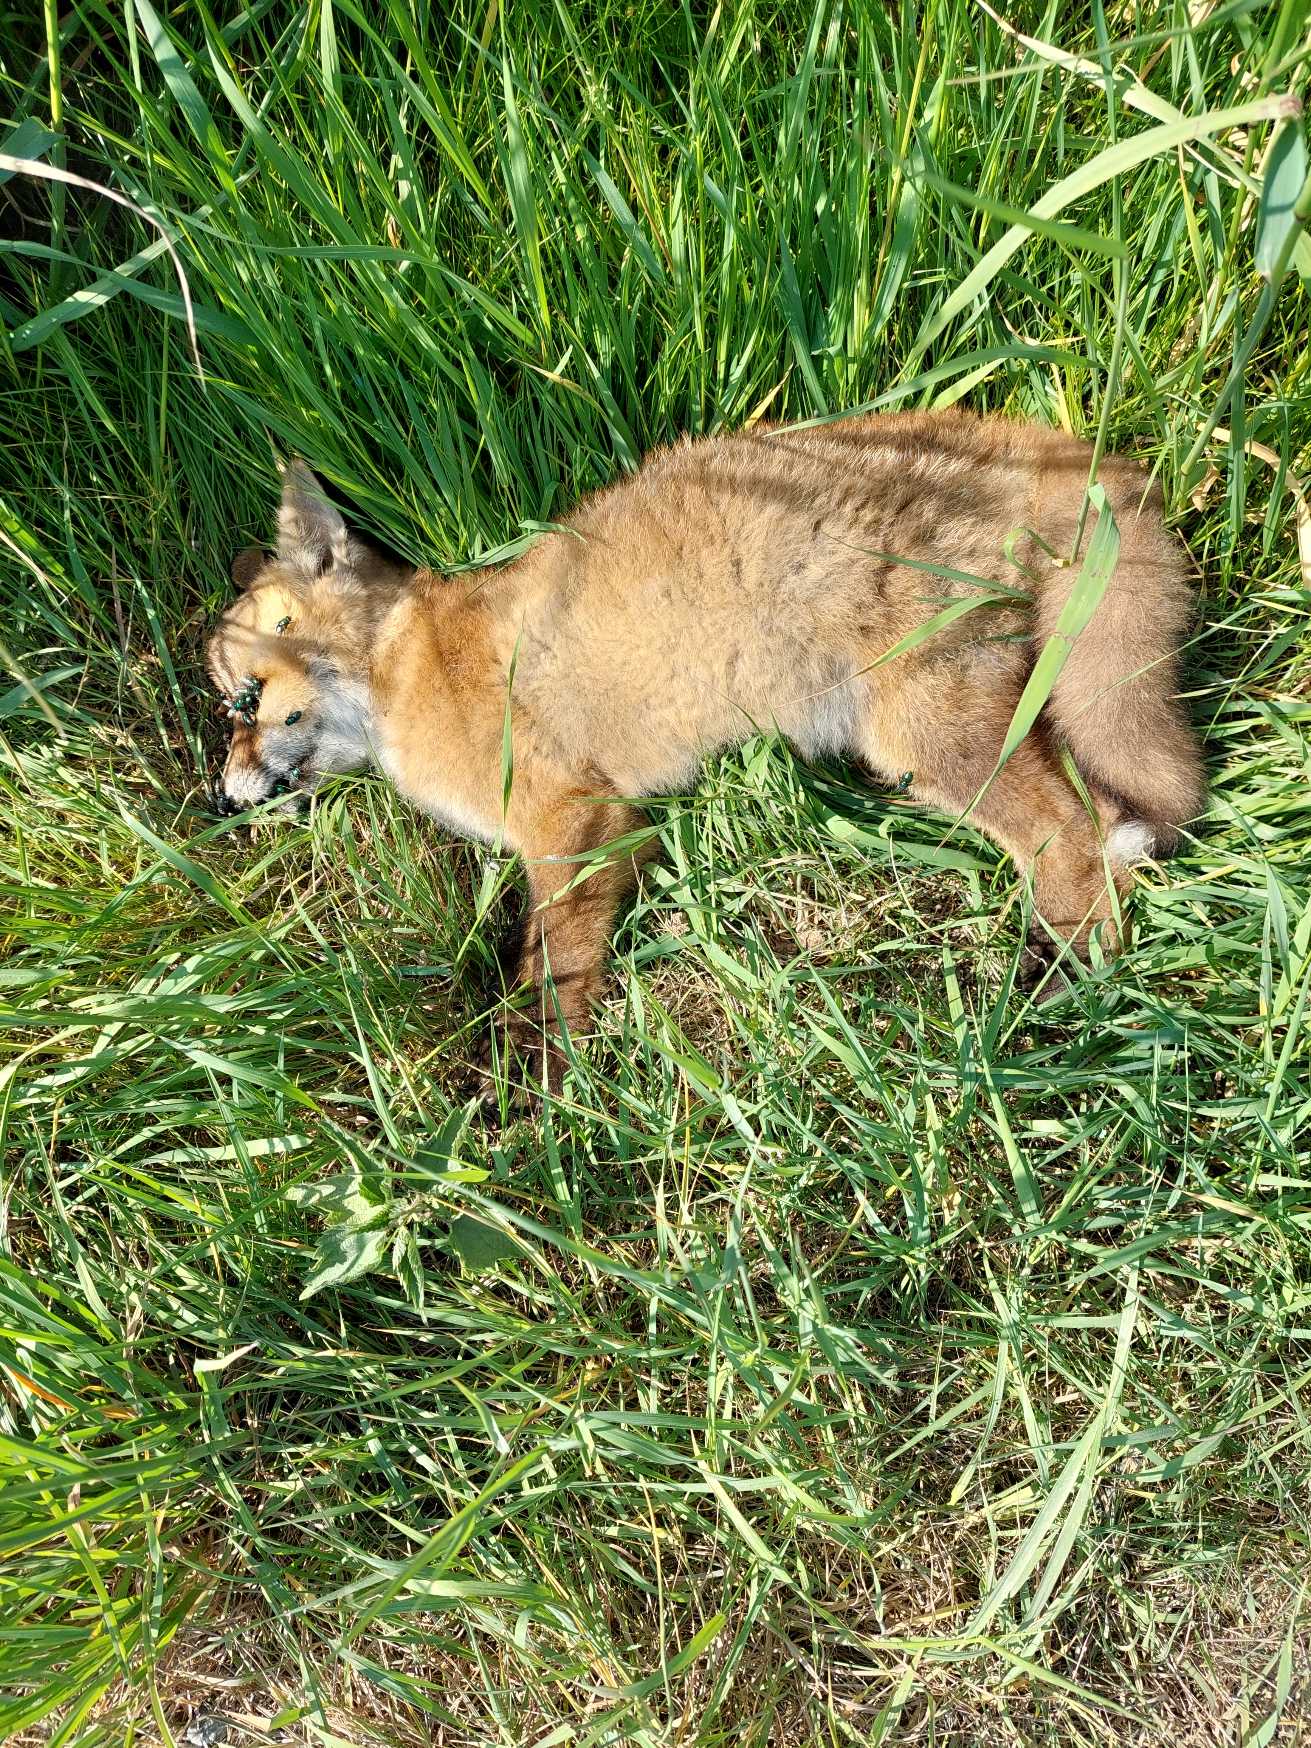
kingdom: Animalia
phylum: Chordata
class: Mammalia
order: Carnivora
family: Canidae
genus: Vulpes
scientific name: Vulpes vulpes
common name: Ræv
